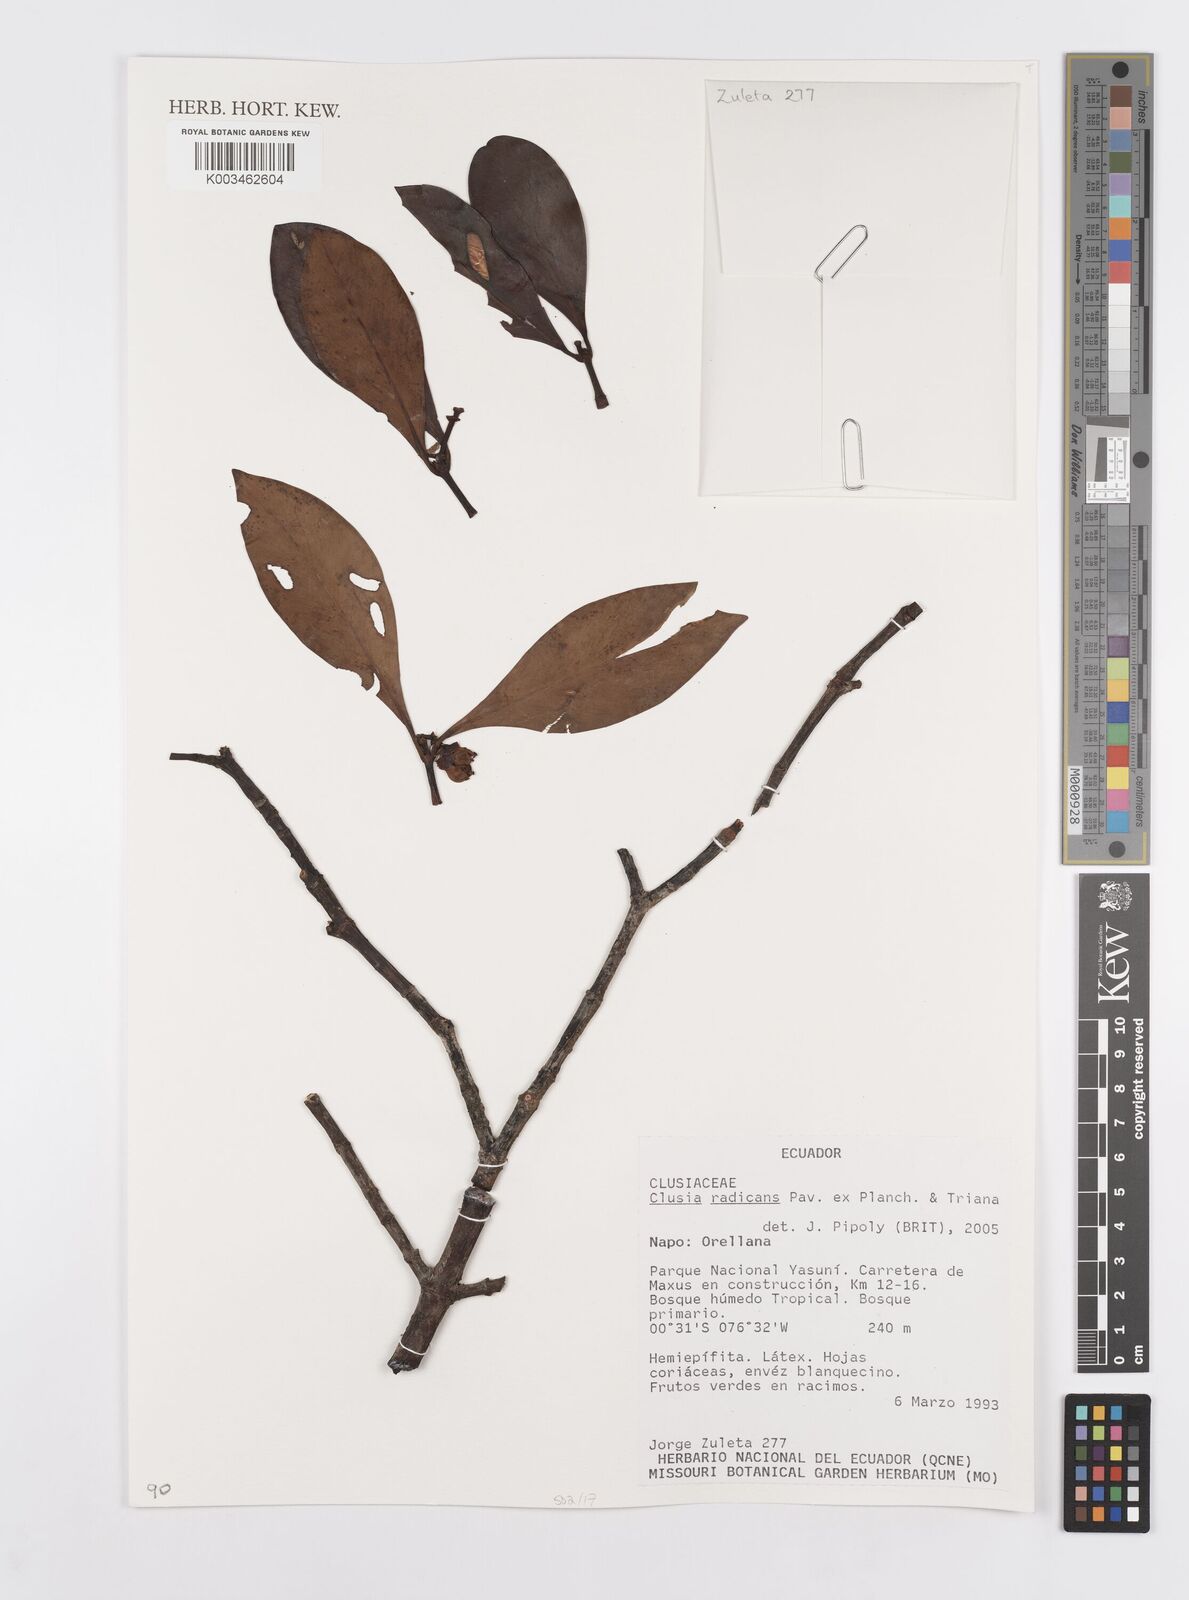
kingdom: Plantae
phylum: Tracheophyta
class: Magnoliopsida
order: Malpighiales
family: Clusiaceae
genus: Clusia
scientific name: Clusia radicans
